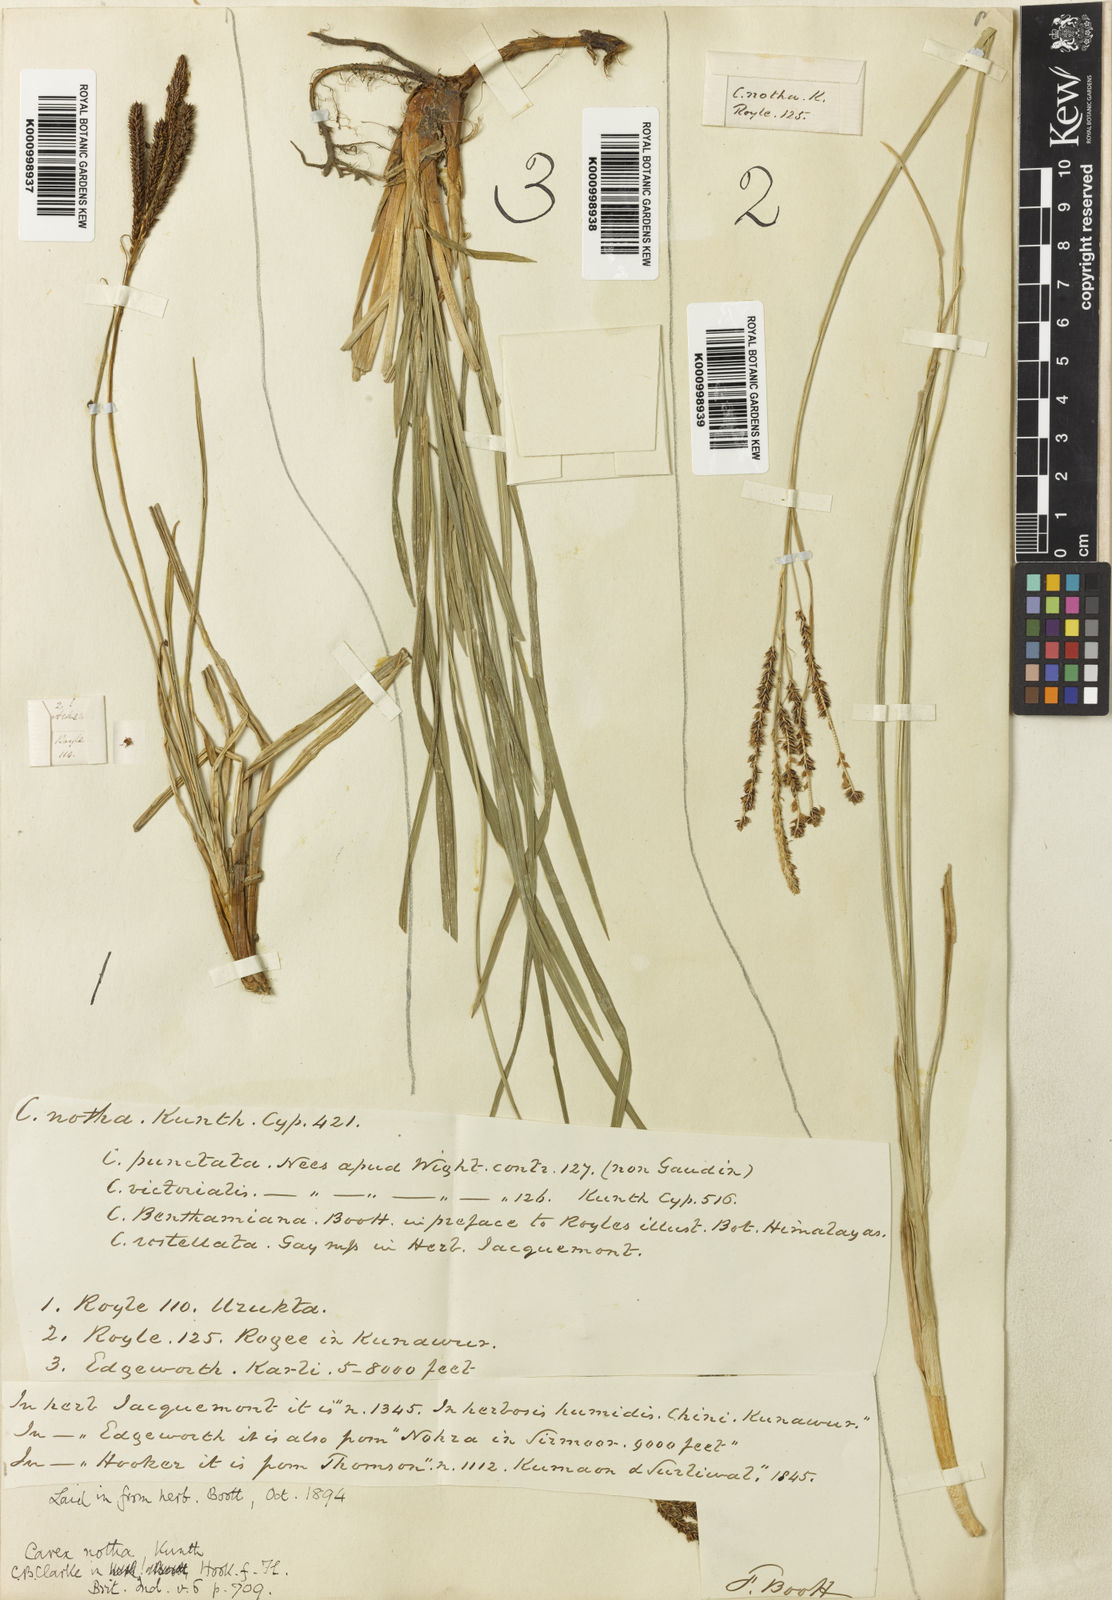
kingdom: Plantae
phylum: Tracheophyta
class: Liliopsida
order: Poales
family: Cyperaceae
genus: Carex
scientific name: Carex notha
